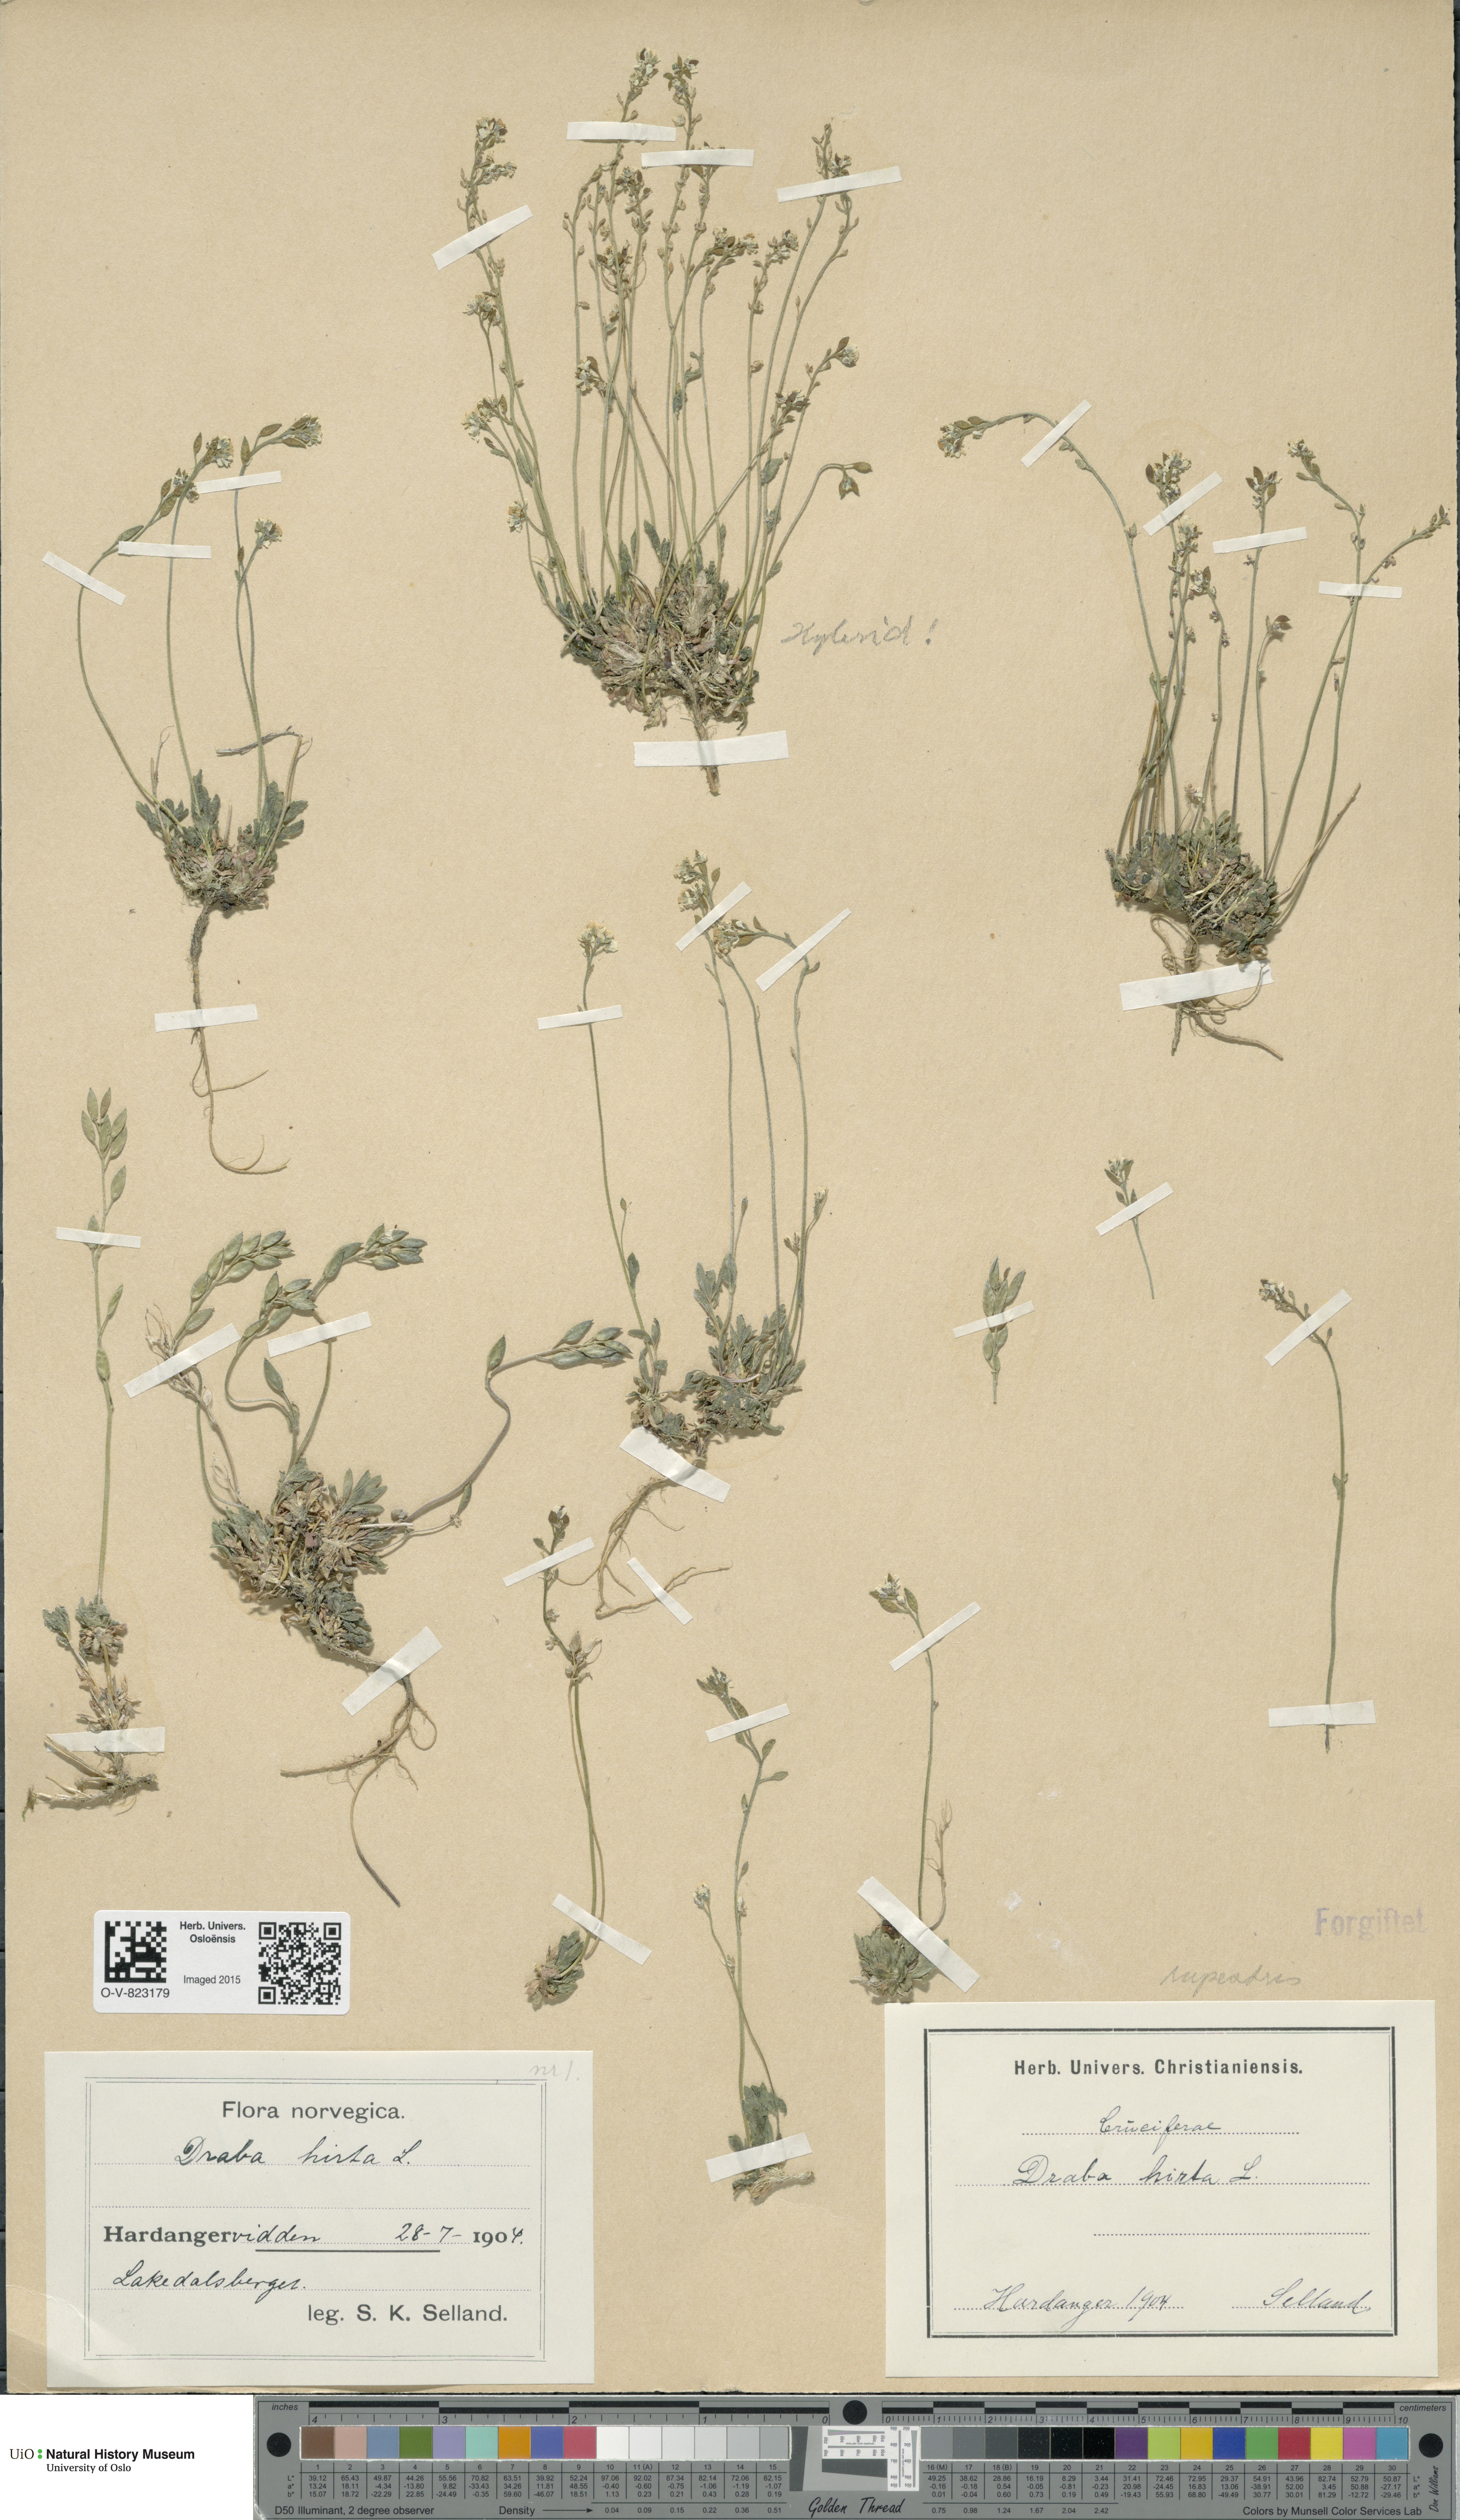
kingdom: Plantae
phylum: Tracheophyta
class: Magnoliopsida
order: Brassicales
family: Brassicaceae
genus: Draba
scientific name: Draba glabella
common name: Glaucous draba
